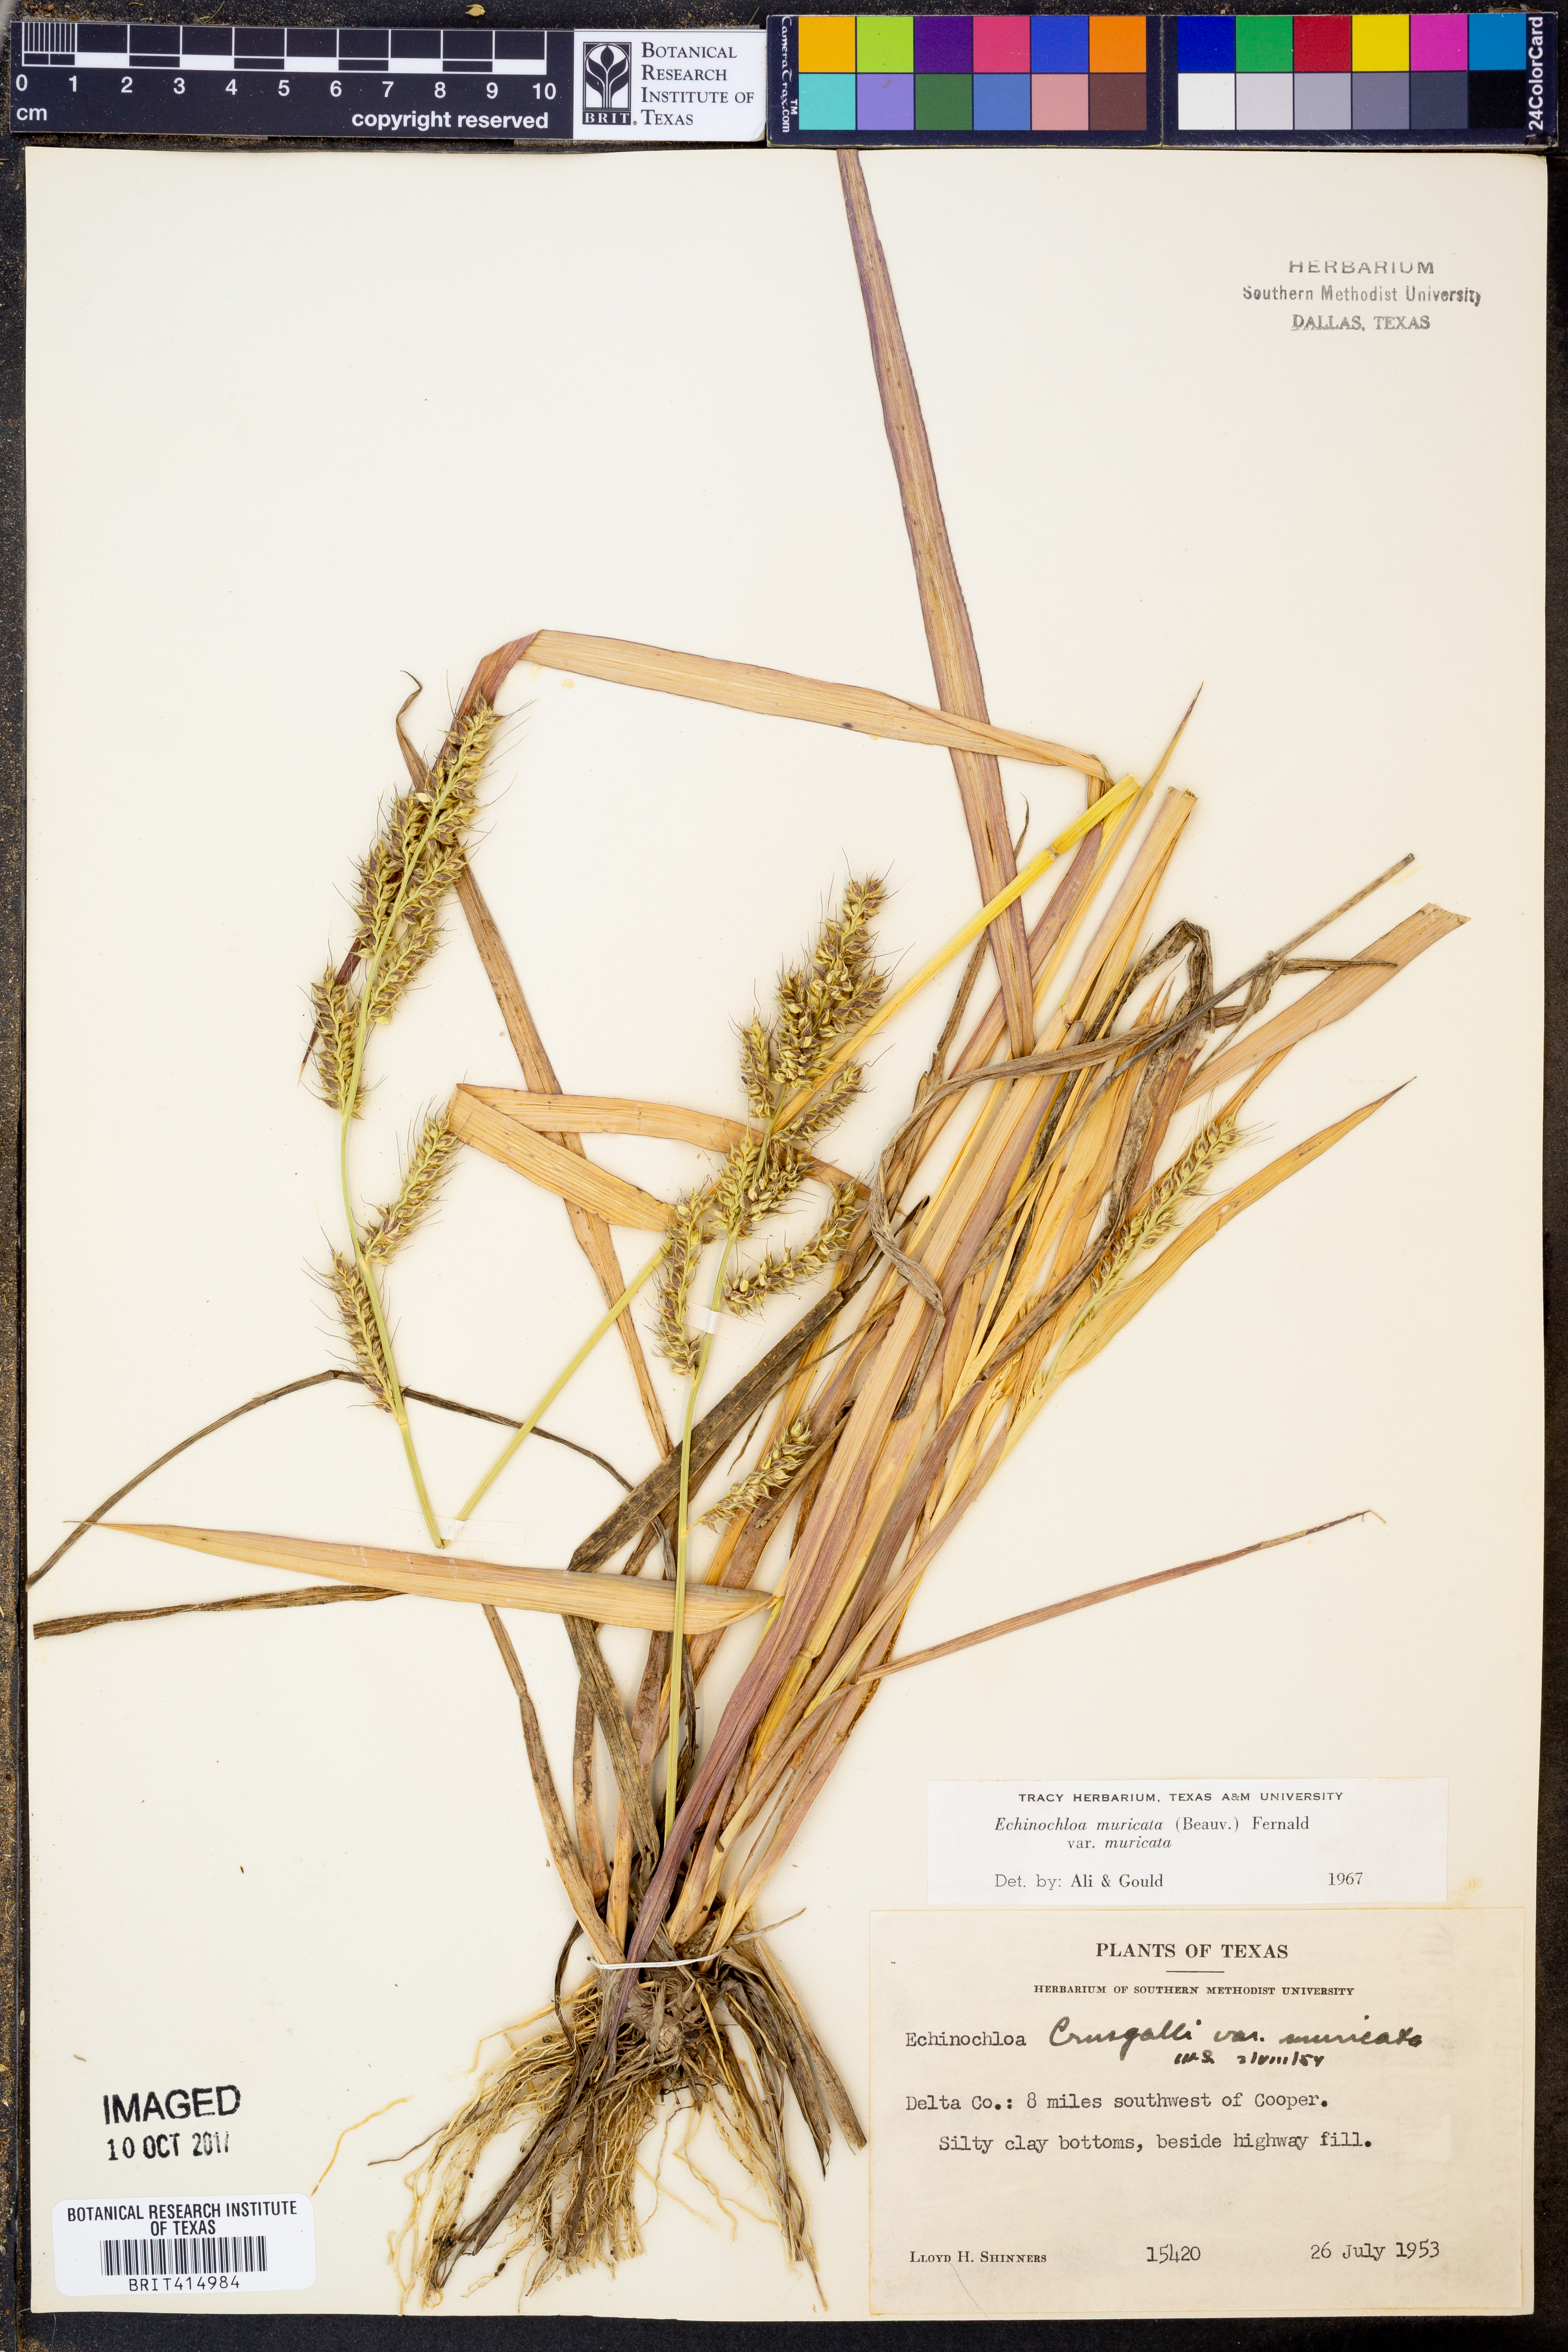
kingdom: Plantae
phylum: Tracheophyta
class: Liliopsida
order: Poales
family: Poaceae
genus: Echinochloa
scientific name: Echinochloa muricata
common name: American barnyard grass
